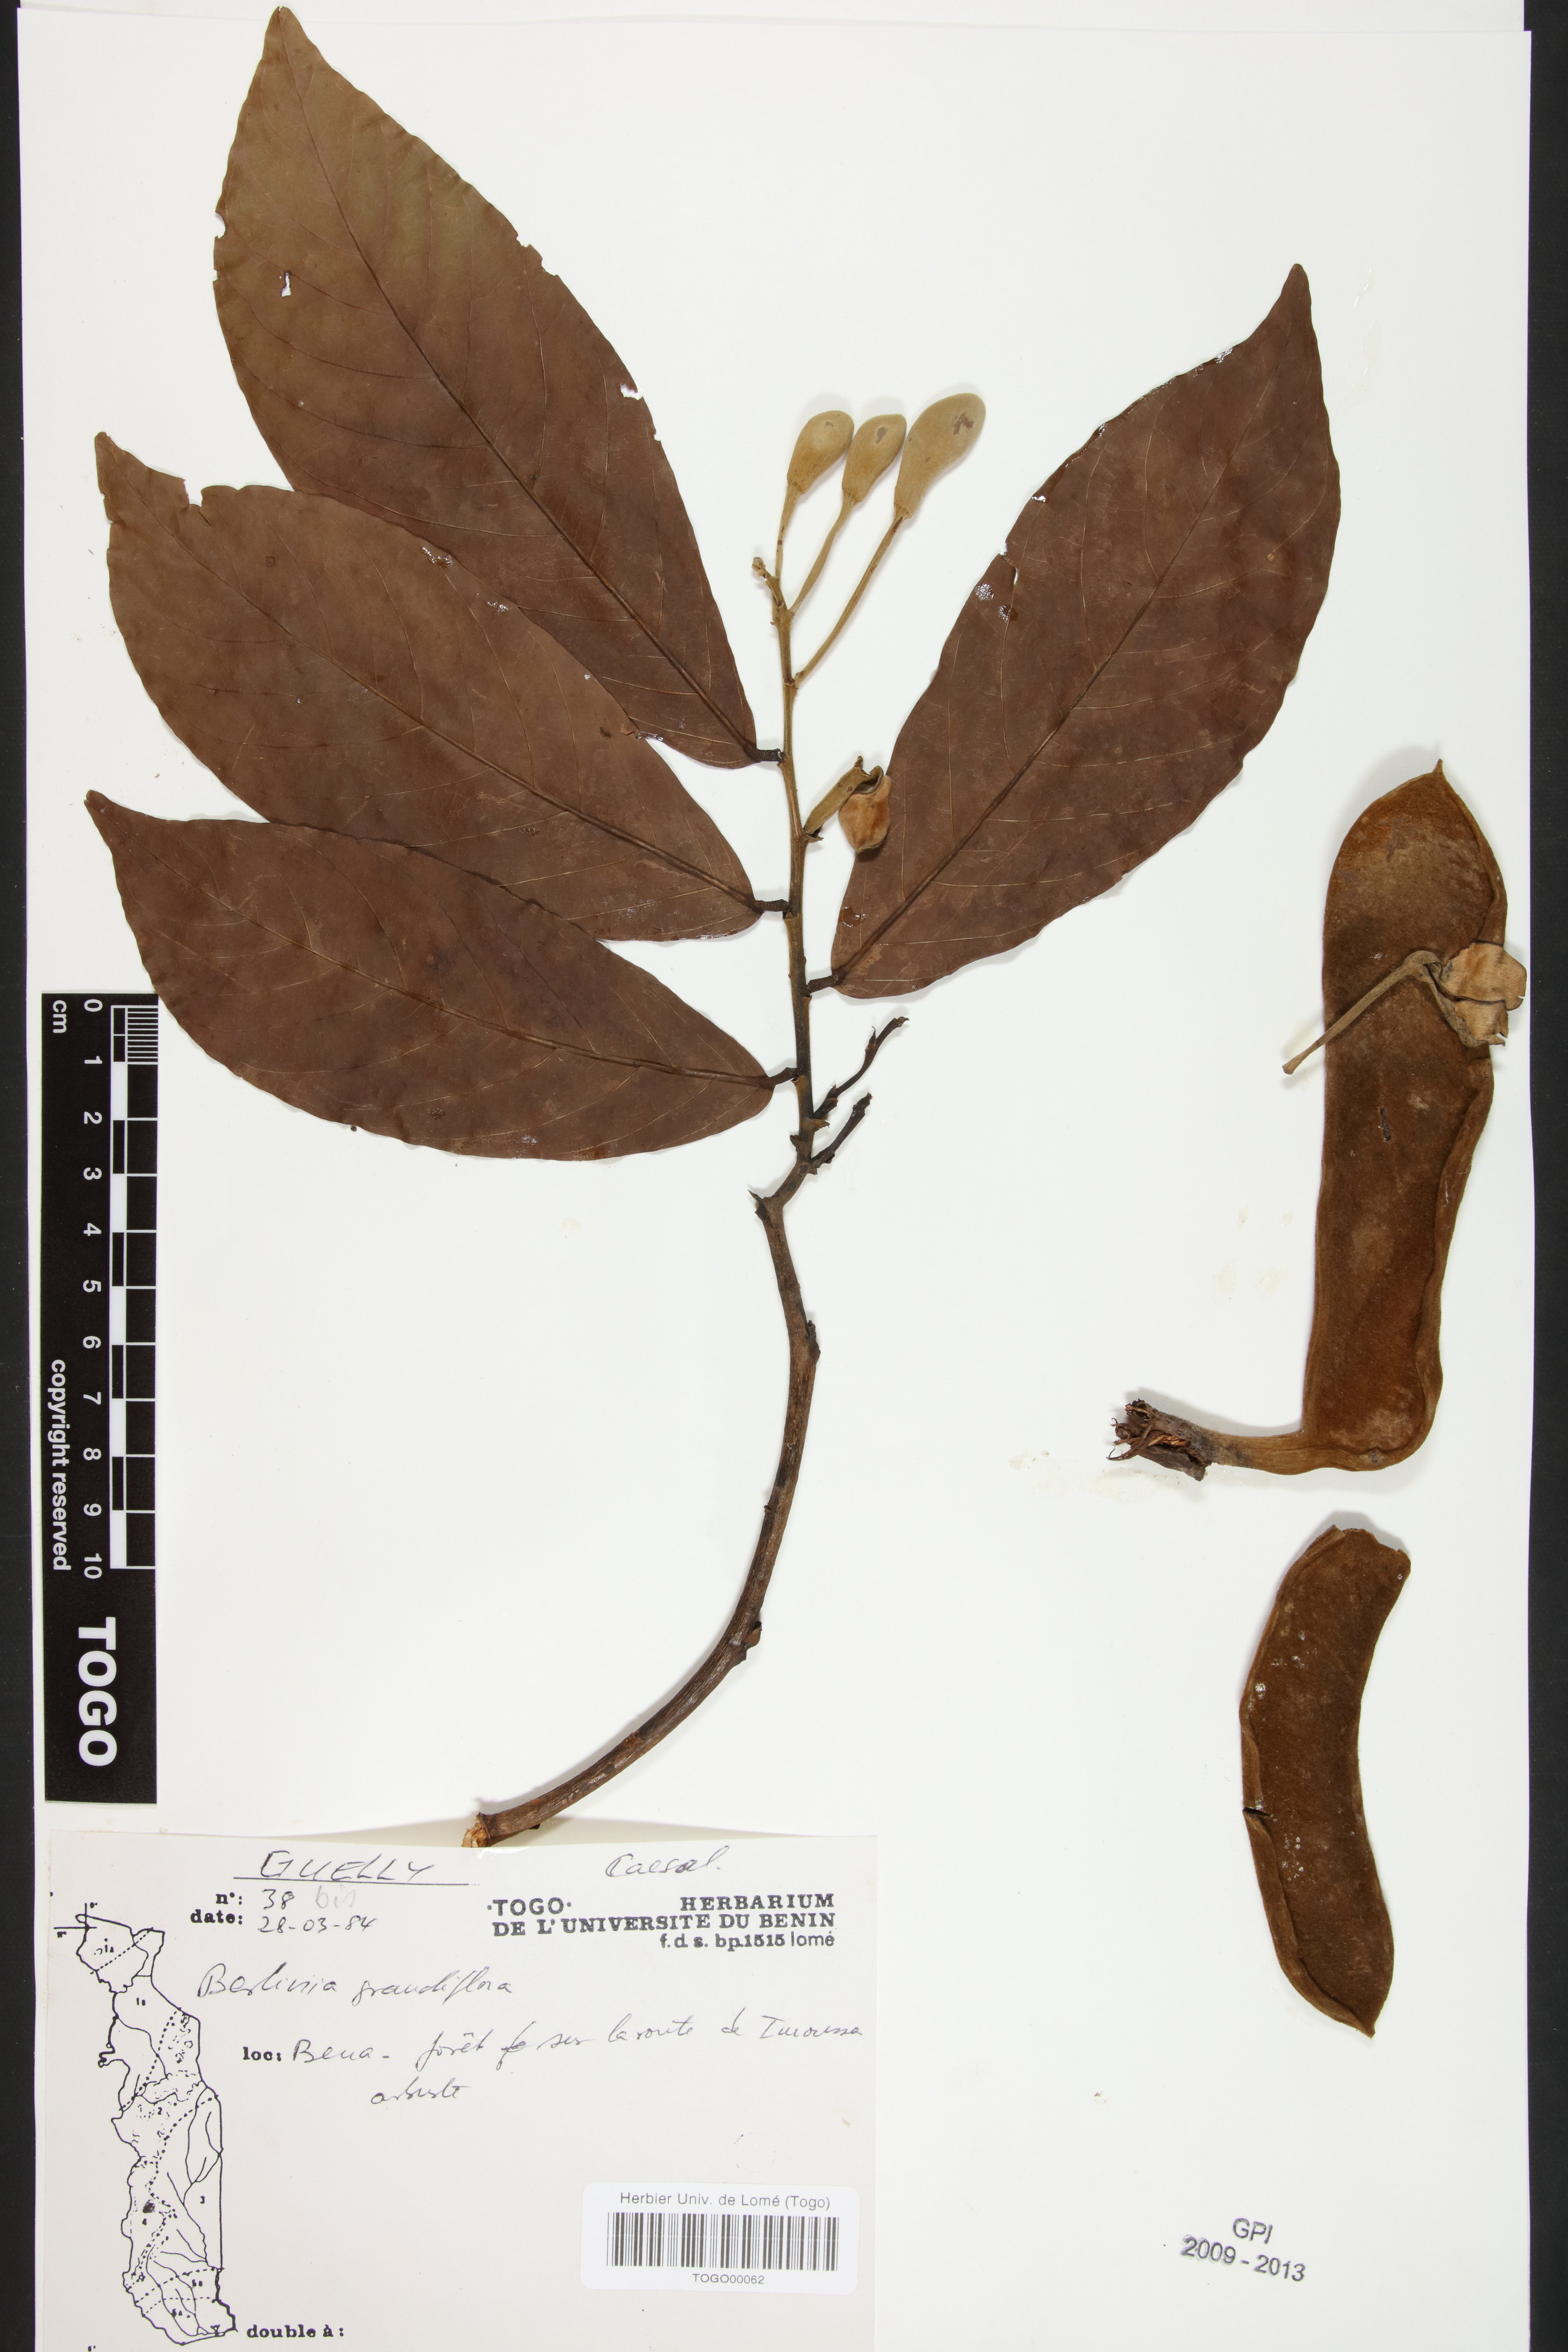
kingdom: Plantae
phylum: Tracheophyta
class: Magnoliopsida
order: Fabales
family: Fabaceae
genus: Berlinia
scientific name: Berlinia grandiflora
